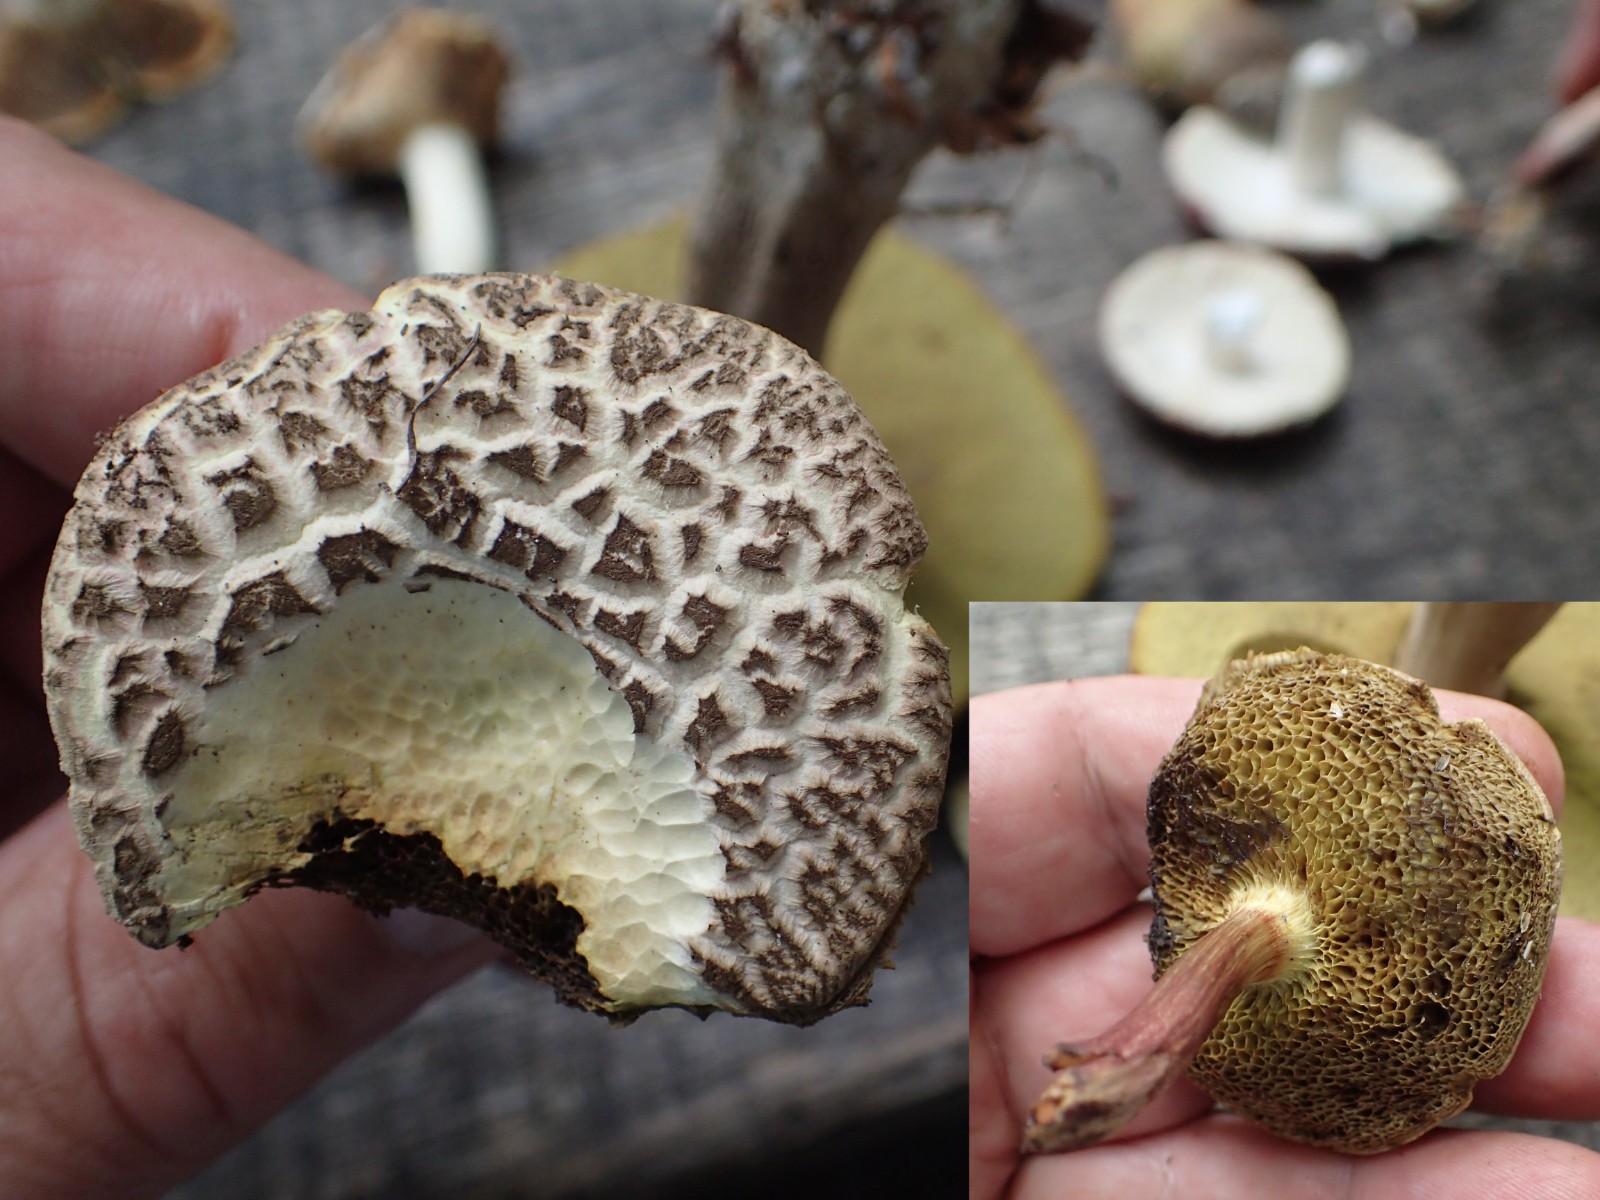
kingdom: Fungi
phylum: Basidiomycota
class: Agaricomycetes
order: Boletales
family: Boletaceae
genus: Xerocomellus
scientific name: Xerocomellus chrysenteron
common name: rødsprukken rørhat
